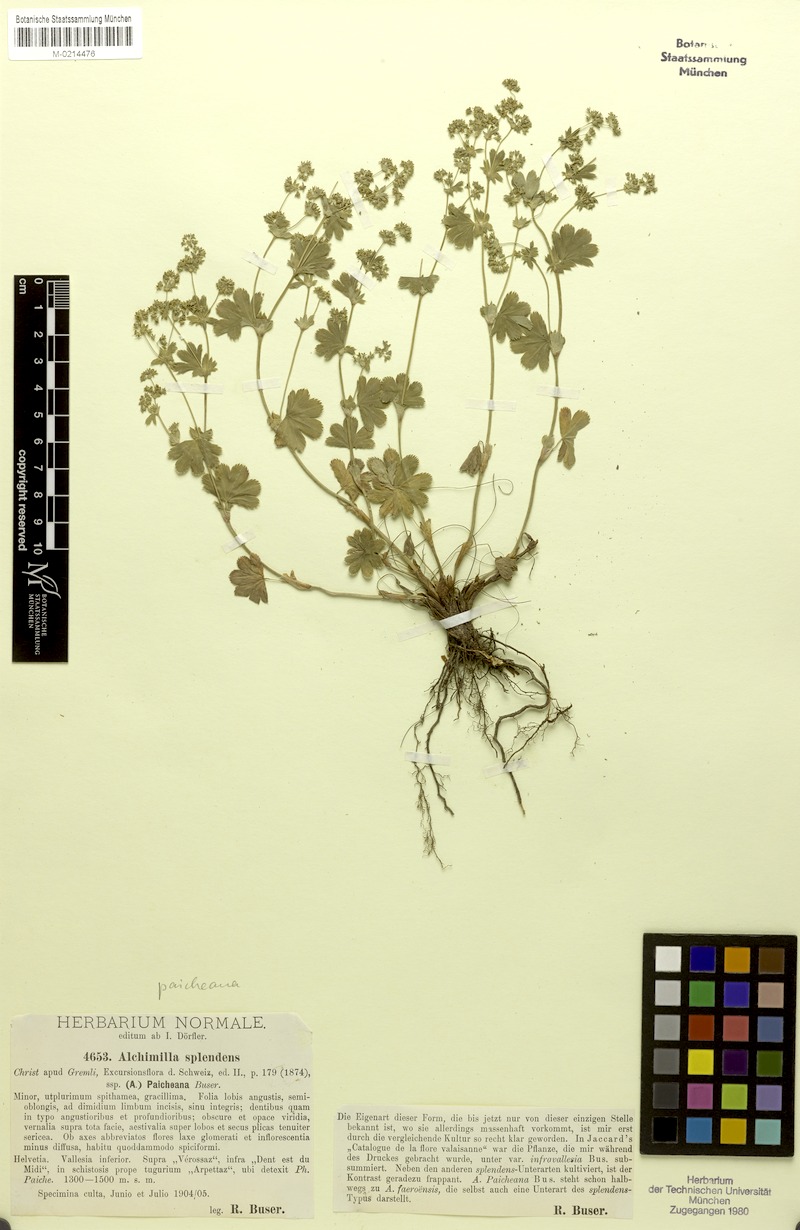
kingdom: Plantae
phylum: Tracheophyta
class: Magnoliopsida
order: Rosales
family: Rosaceae
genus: Alchemilla
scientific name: Alchemilla paicheana
